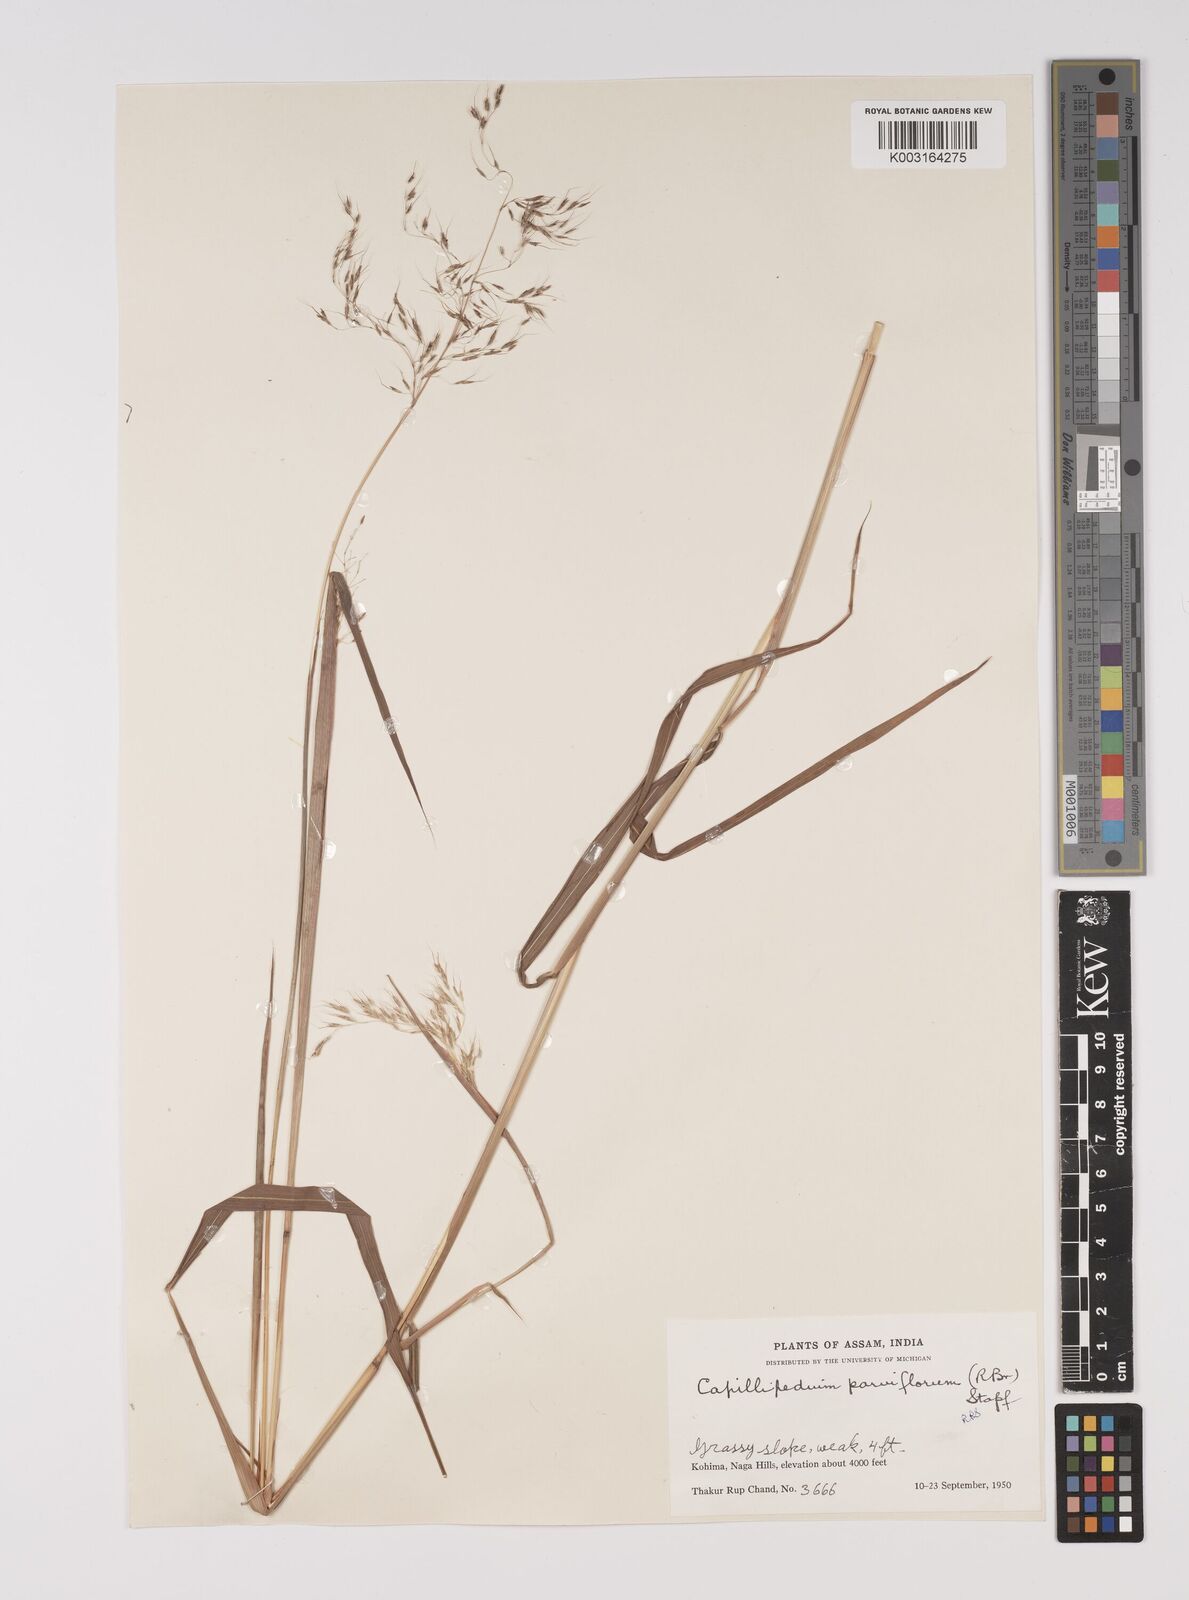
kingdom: Plantae
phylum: Tracheophyta
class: Liliopsida
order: Poales
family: Poaceae
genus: Capillipedium
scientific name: Capillipedium parviflorum
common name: Golden-beard
